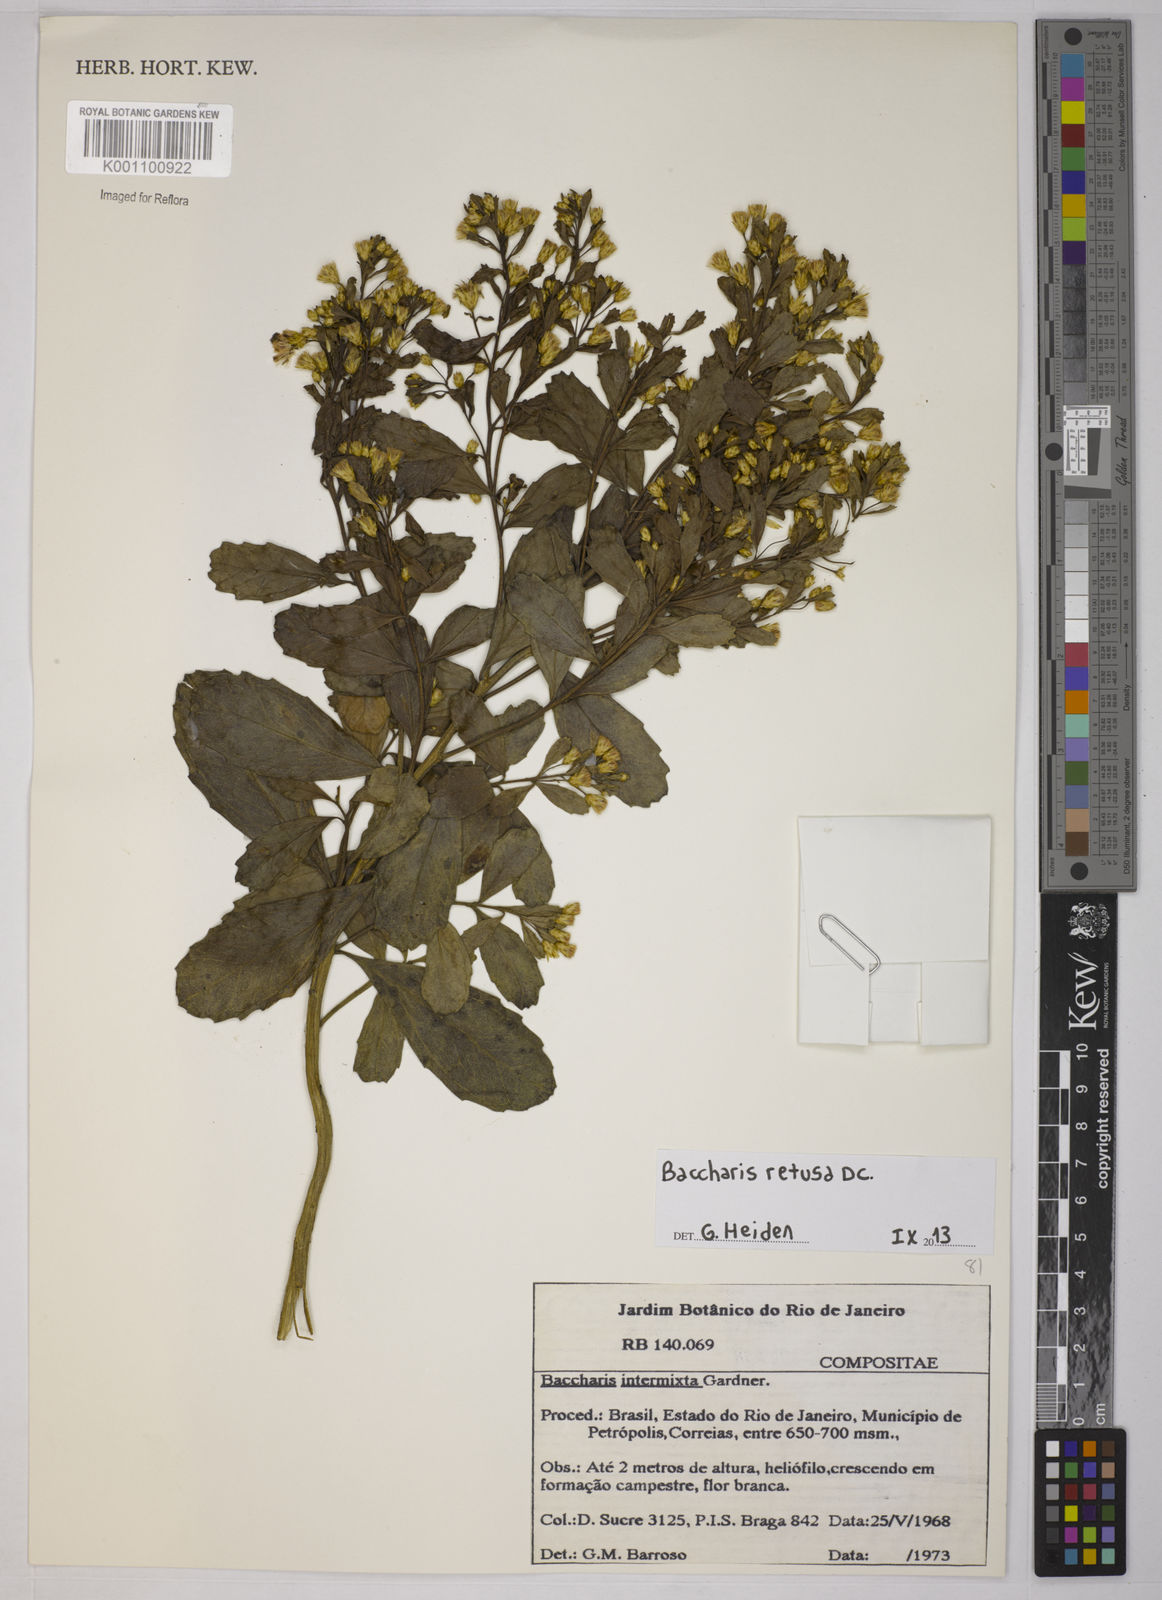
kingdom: Plantae
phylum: Tracheophyta
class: Magnoliopsida
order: Asterales
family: Asteraceae
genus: Baccharis
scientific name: Baccharis retusa
